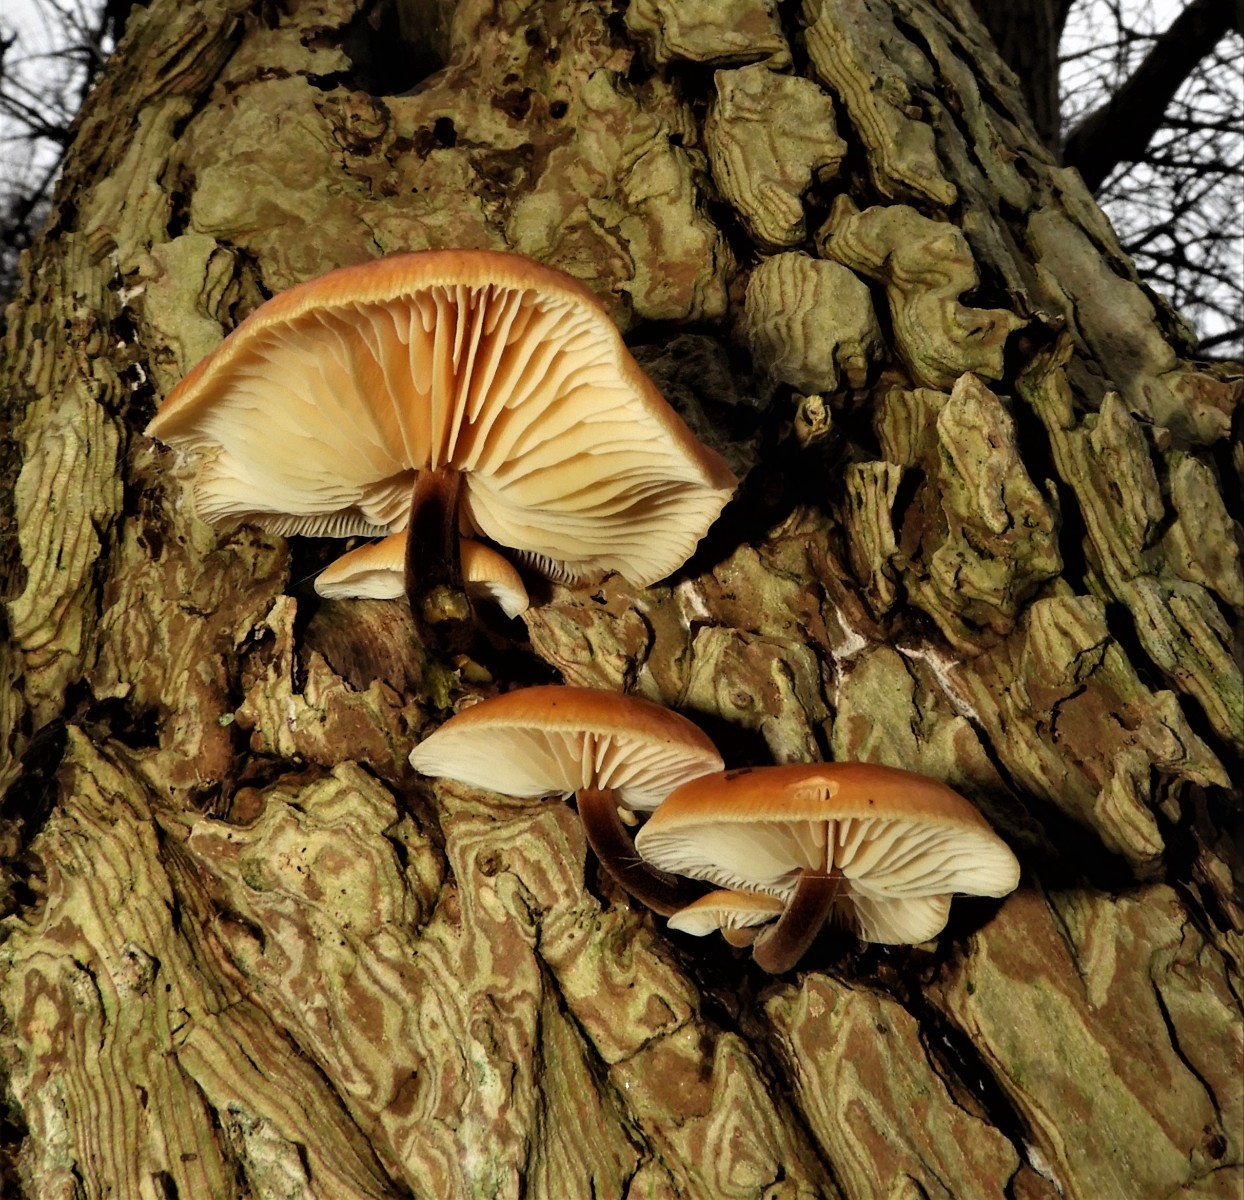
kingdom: Fungi
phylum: Basidiomycota
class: Agaricomycetes
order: Agaricales
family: Physalacriaceae
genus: Flammulina
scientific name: Flammulina velutipes
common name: gul fløjlsfod
